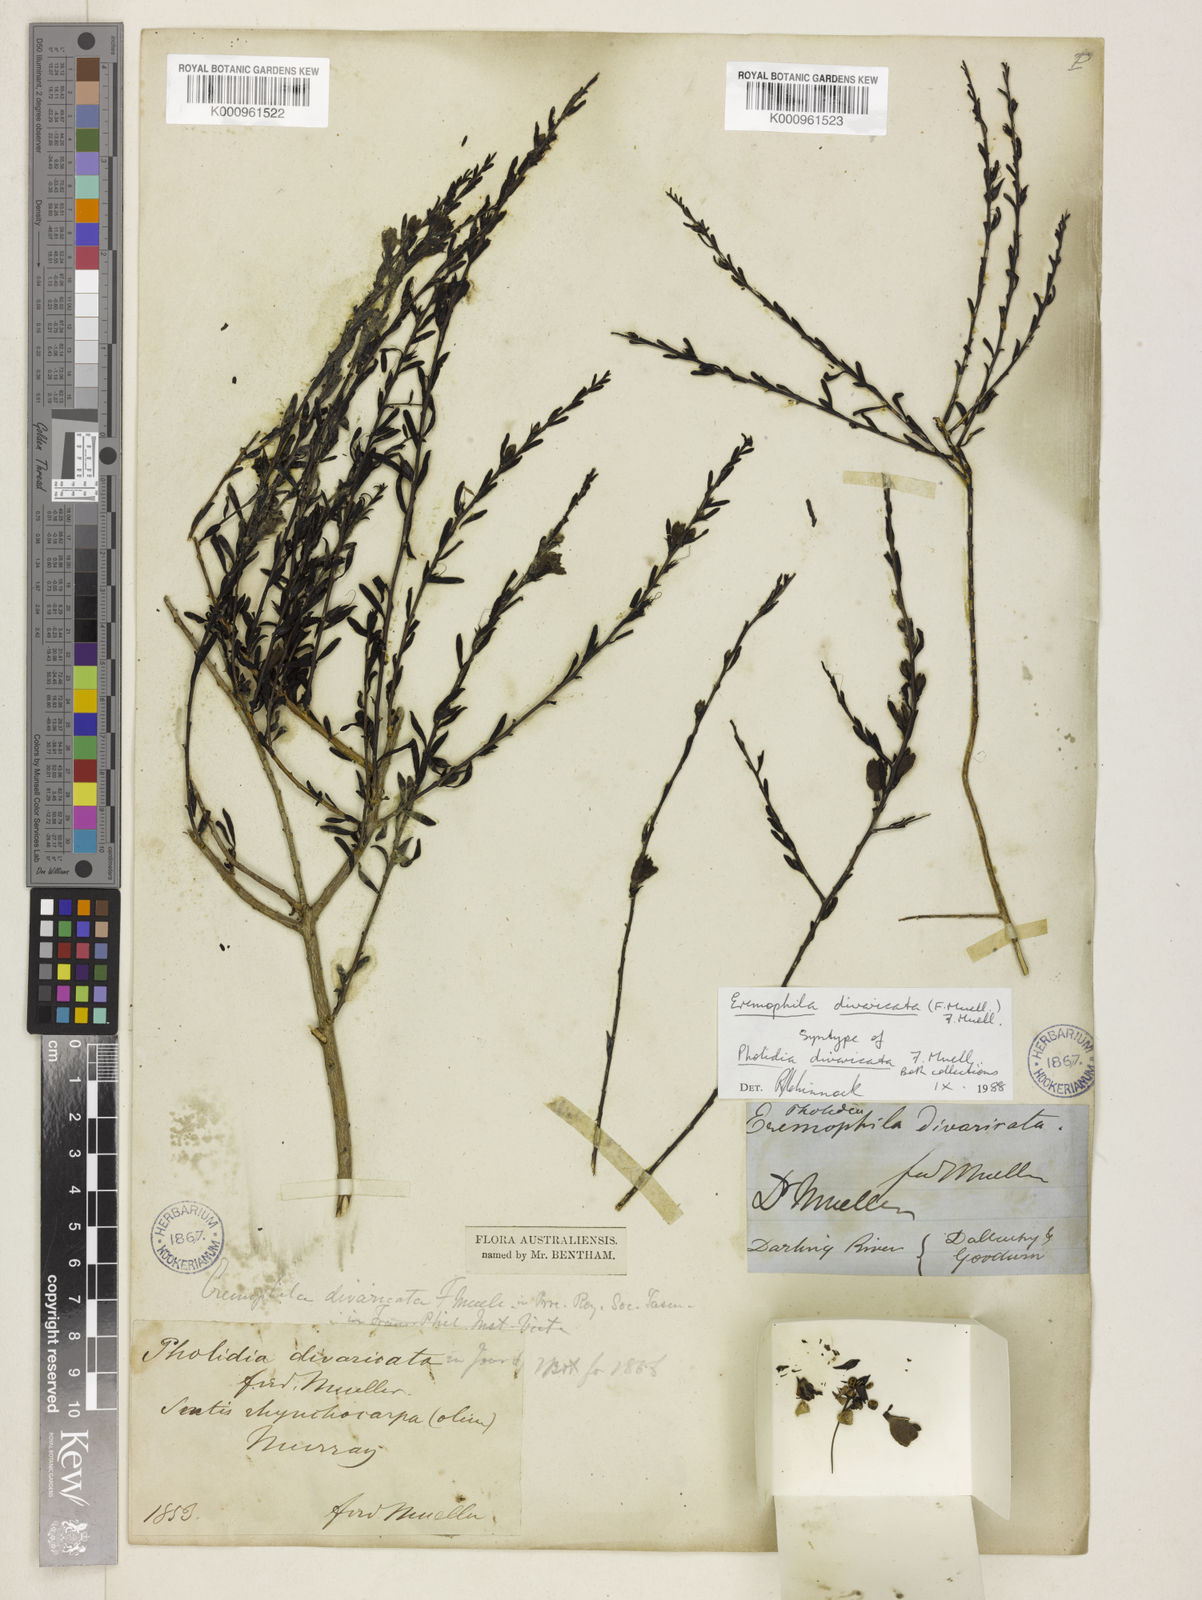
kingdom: Plantae
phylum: Tracheophyta
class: Magnoliopsida
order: Lamiales
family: Scrophulariaceae
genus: Eremophila
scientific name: Eremophila divaricata
